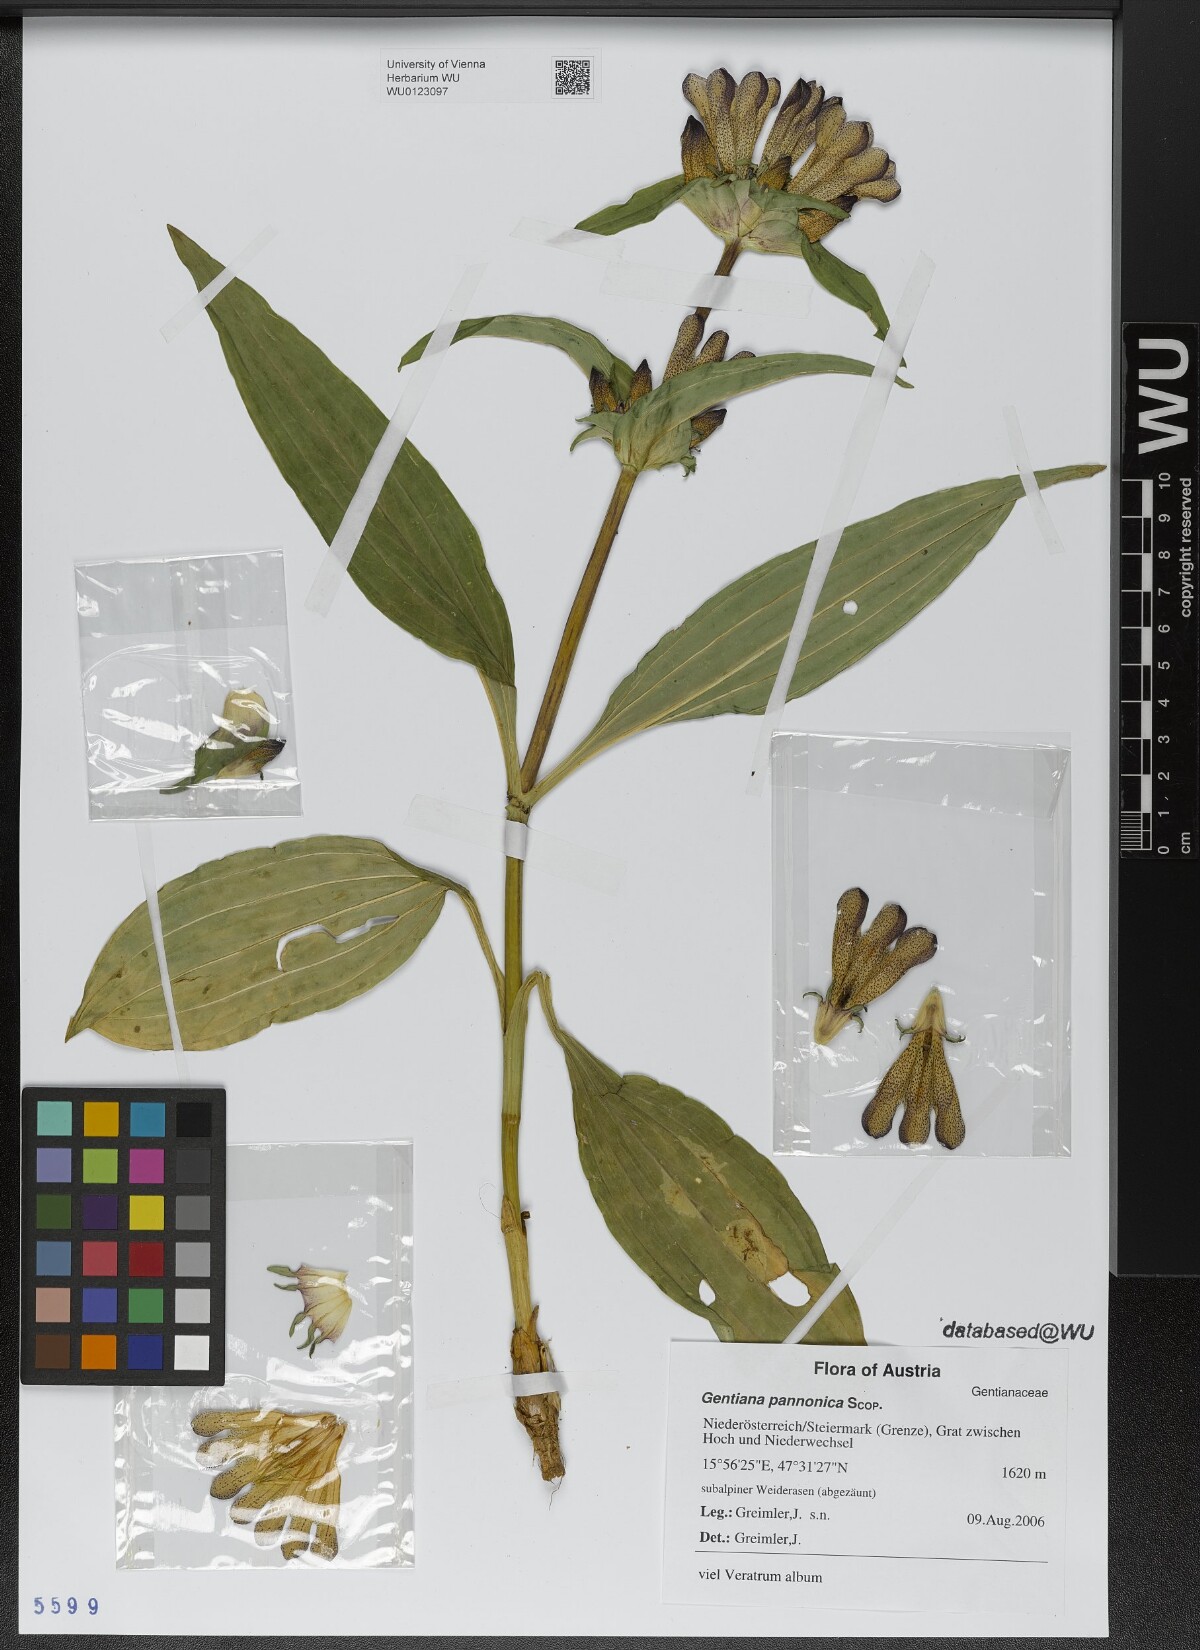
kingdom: Plantae
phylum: Tracheophyta
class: Magnoliopsida
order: Gentianales
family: Gentianaceae
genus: Gentiana
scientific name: Gentiana pannonica
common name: Hungarian gentian
